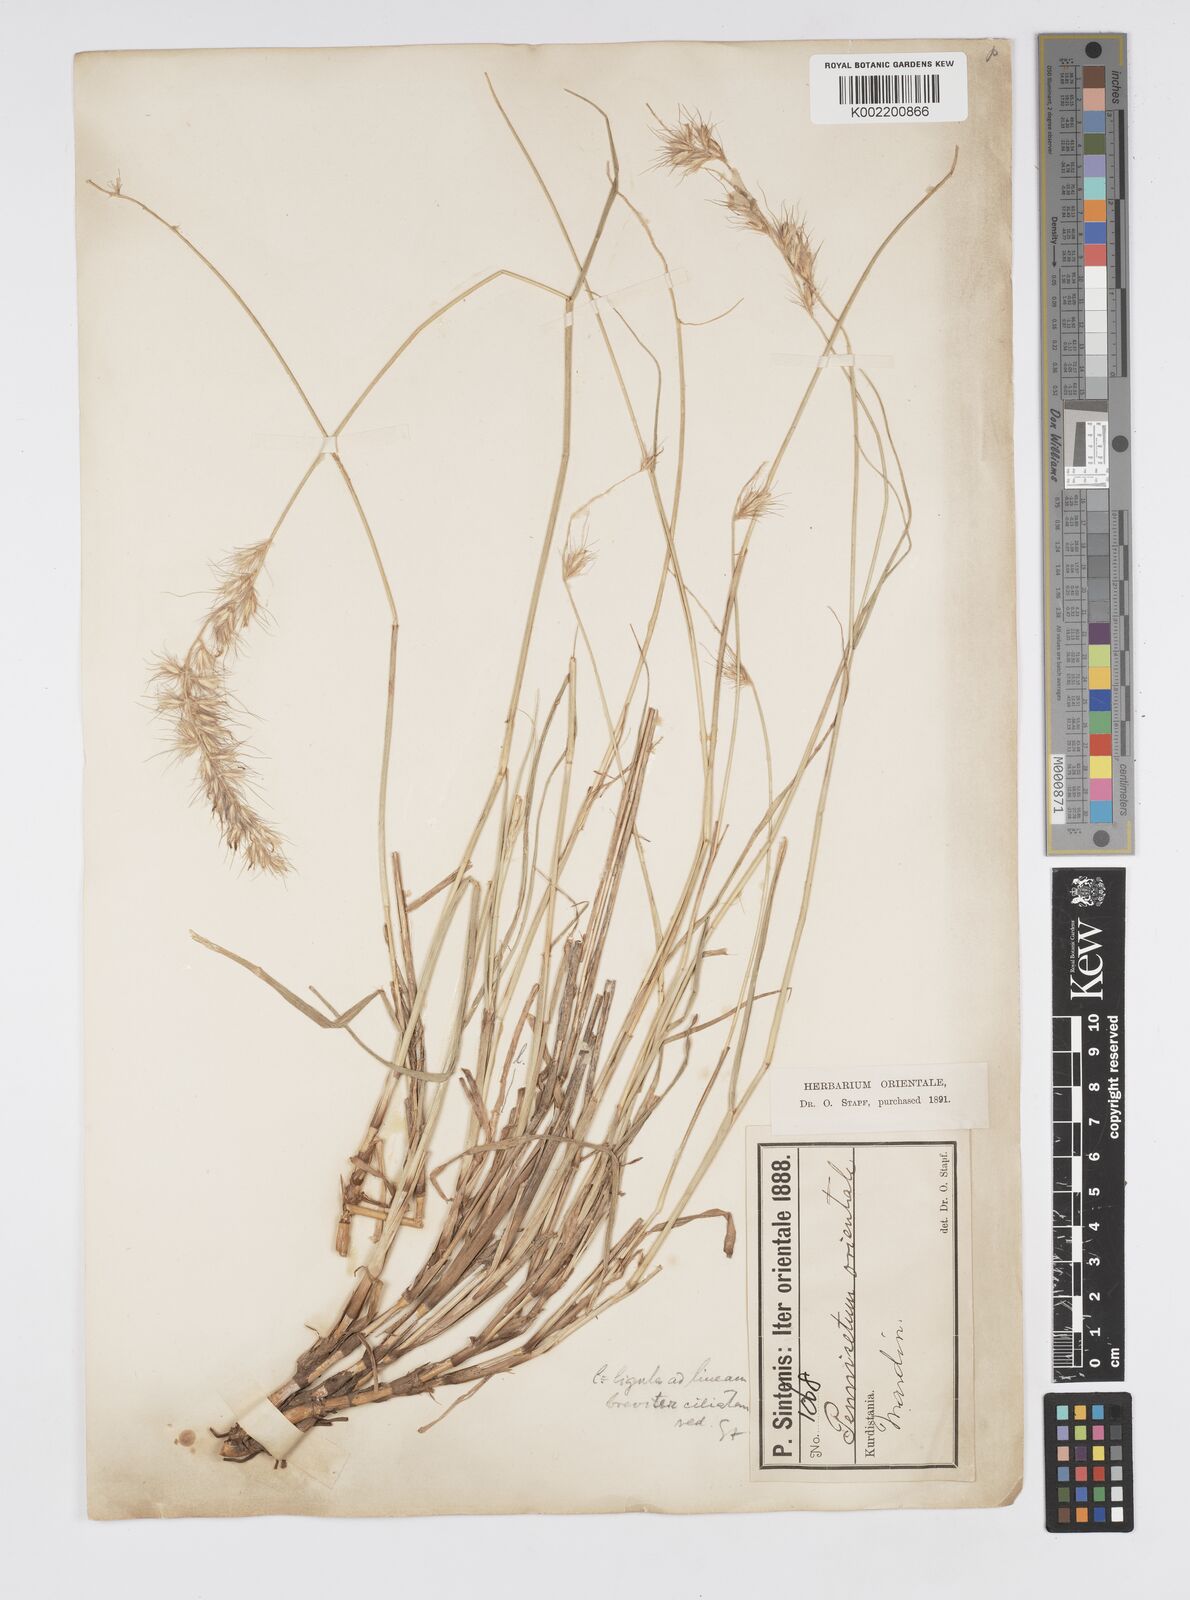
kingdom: Plantae
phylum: Tracheophyta
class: Liliopsida
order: Poales
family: Poaceae
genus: Cenchrus
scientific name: Cenchrus orientalis
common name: Oriental fountain grass
